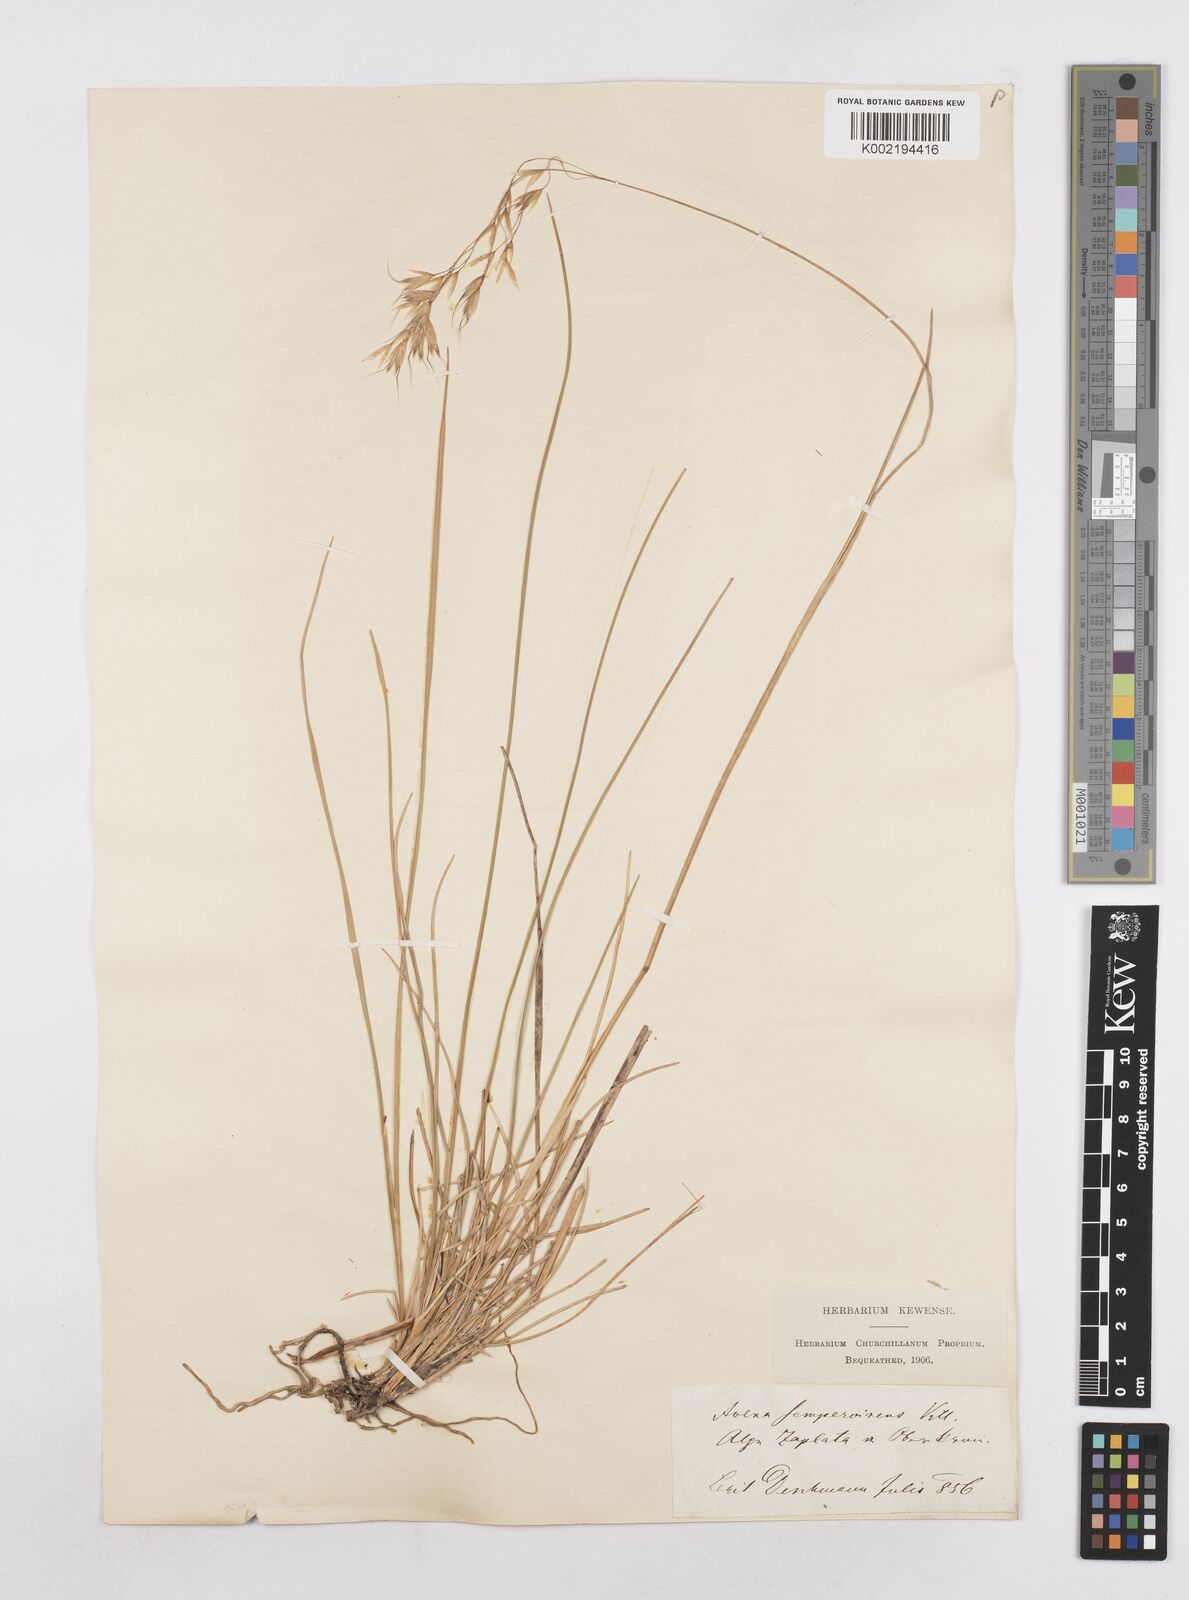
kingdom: Plantae
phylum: Tracheophyta
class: Liliopsida
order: Poales
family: Poaceae
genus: Helictotrichon
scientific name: Helictotrichon sempervirens
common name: Blue oat-grass
